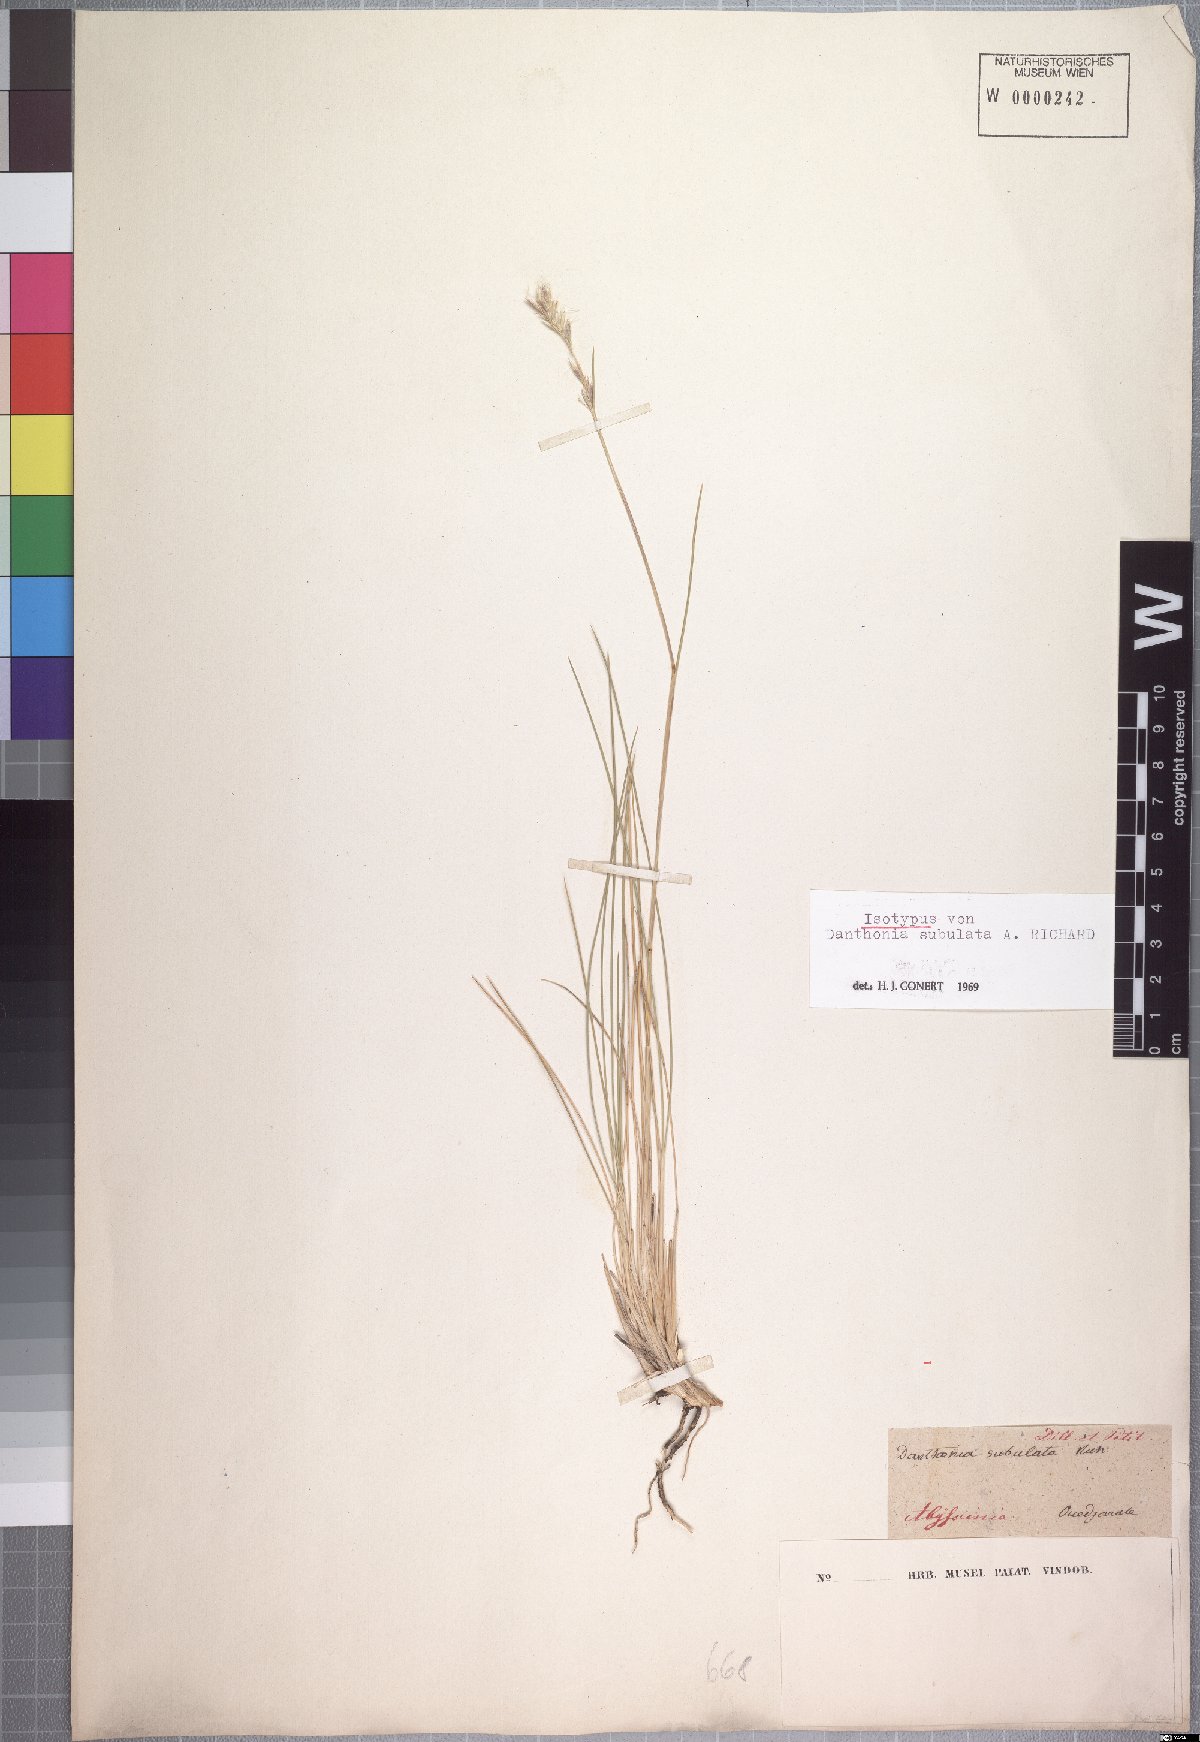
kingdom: Plantae
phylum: Tracheophyta
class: Liliopsida
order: Poales
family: Poaceae
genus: Tenaxia
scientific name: Tenaxia subulata
